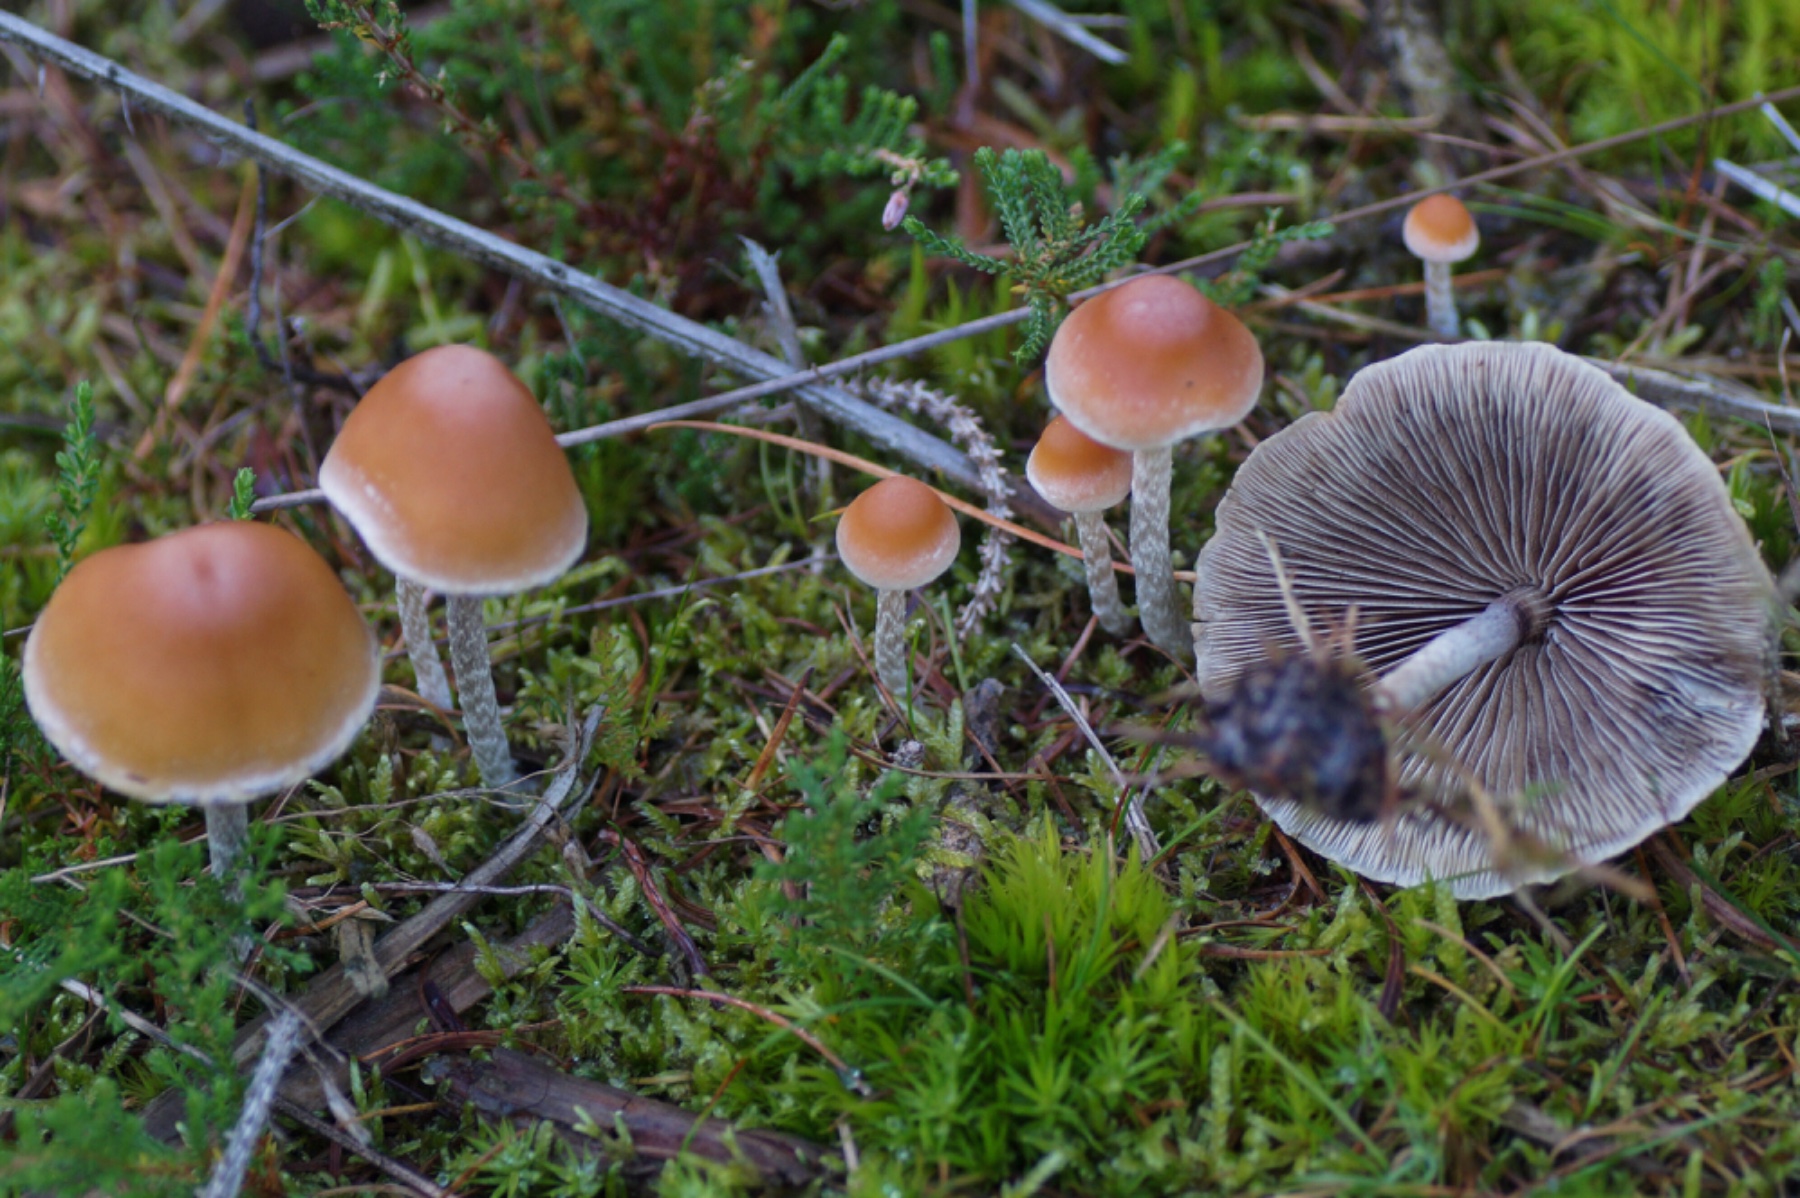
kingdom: Fungi
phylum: Basidiomycota
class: Agaricomycetes
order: Agaricales
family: Strophariaceae
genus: Hypholoma
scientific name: Hypholoma marginatum
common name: enlig svovlhat
